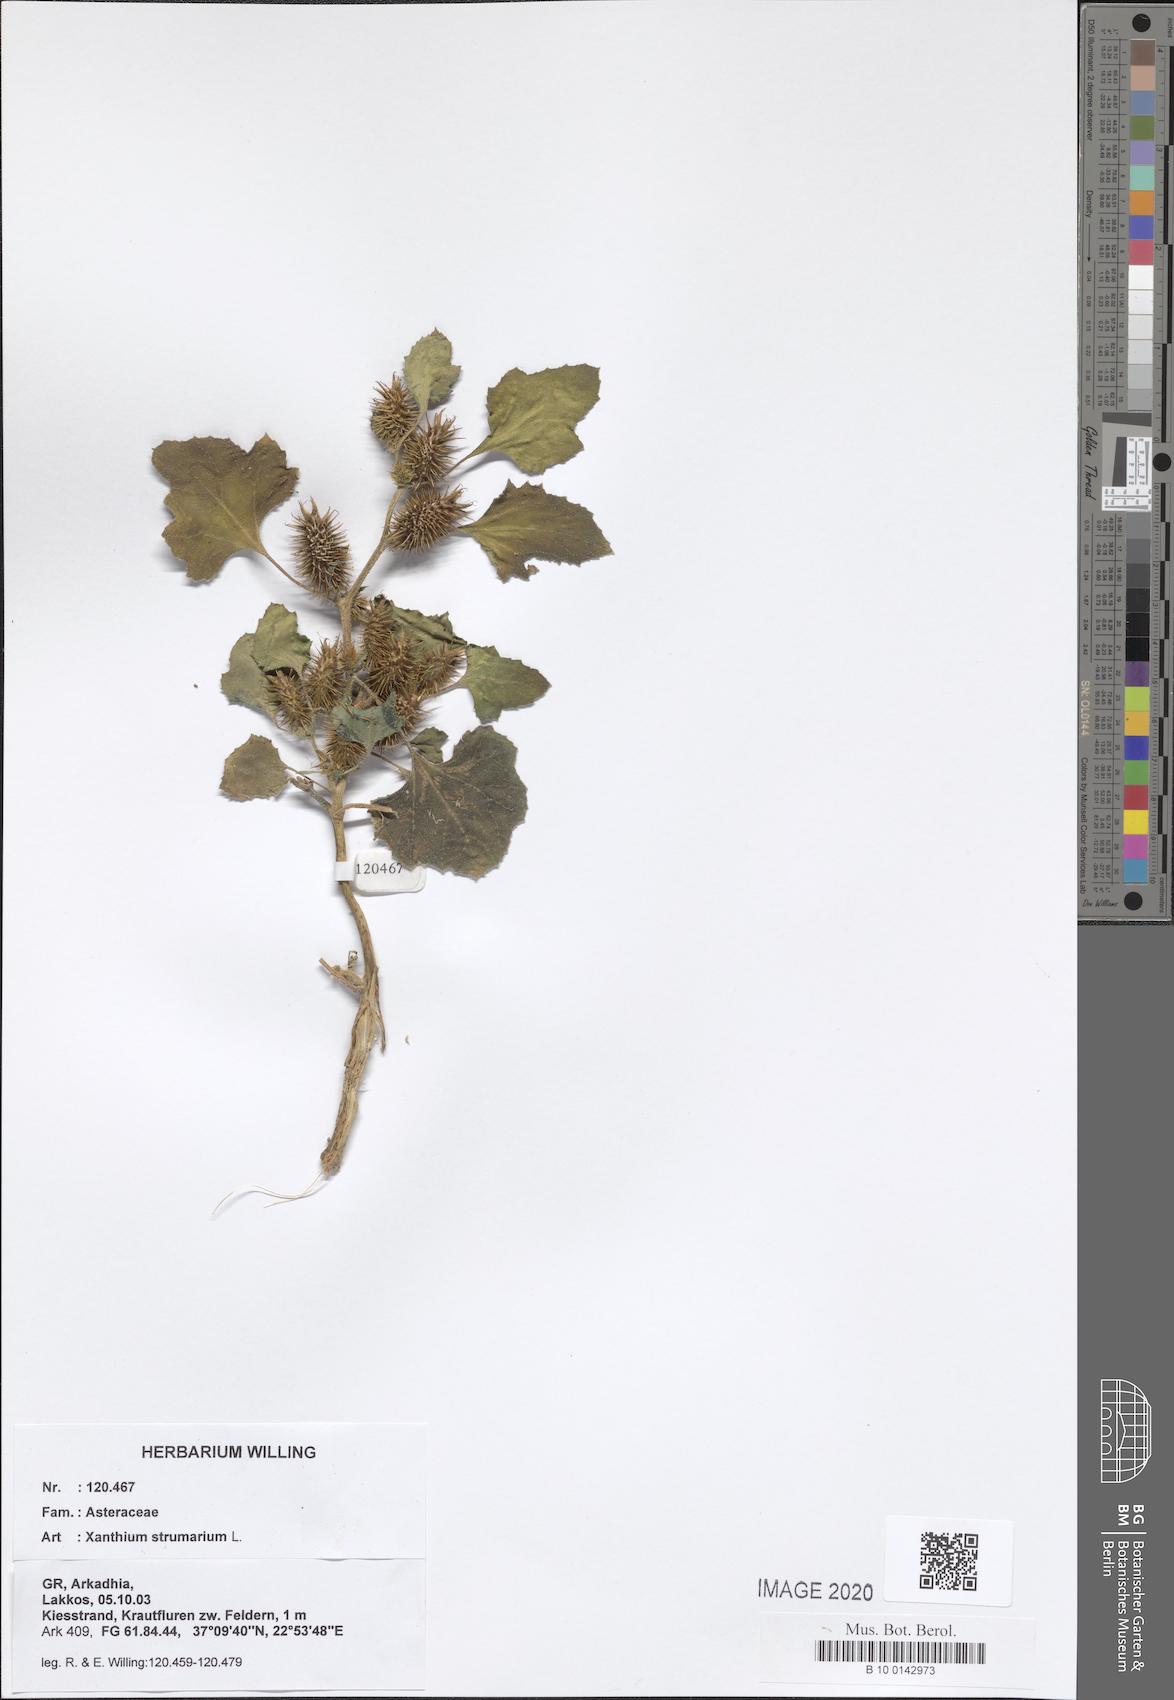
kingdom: Plantae
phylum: Tracheophyta
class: Magnoliopsida
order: Asterales
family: Asteraceae
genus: Xanthium
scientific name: Xanthium strumarium
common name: Rough cocklebur
